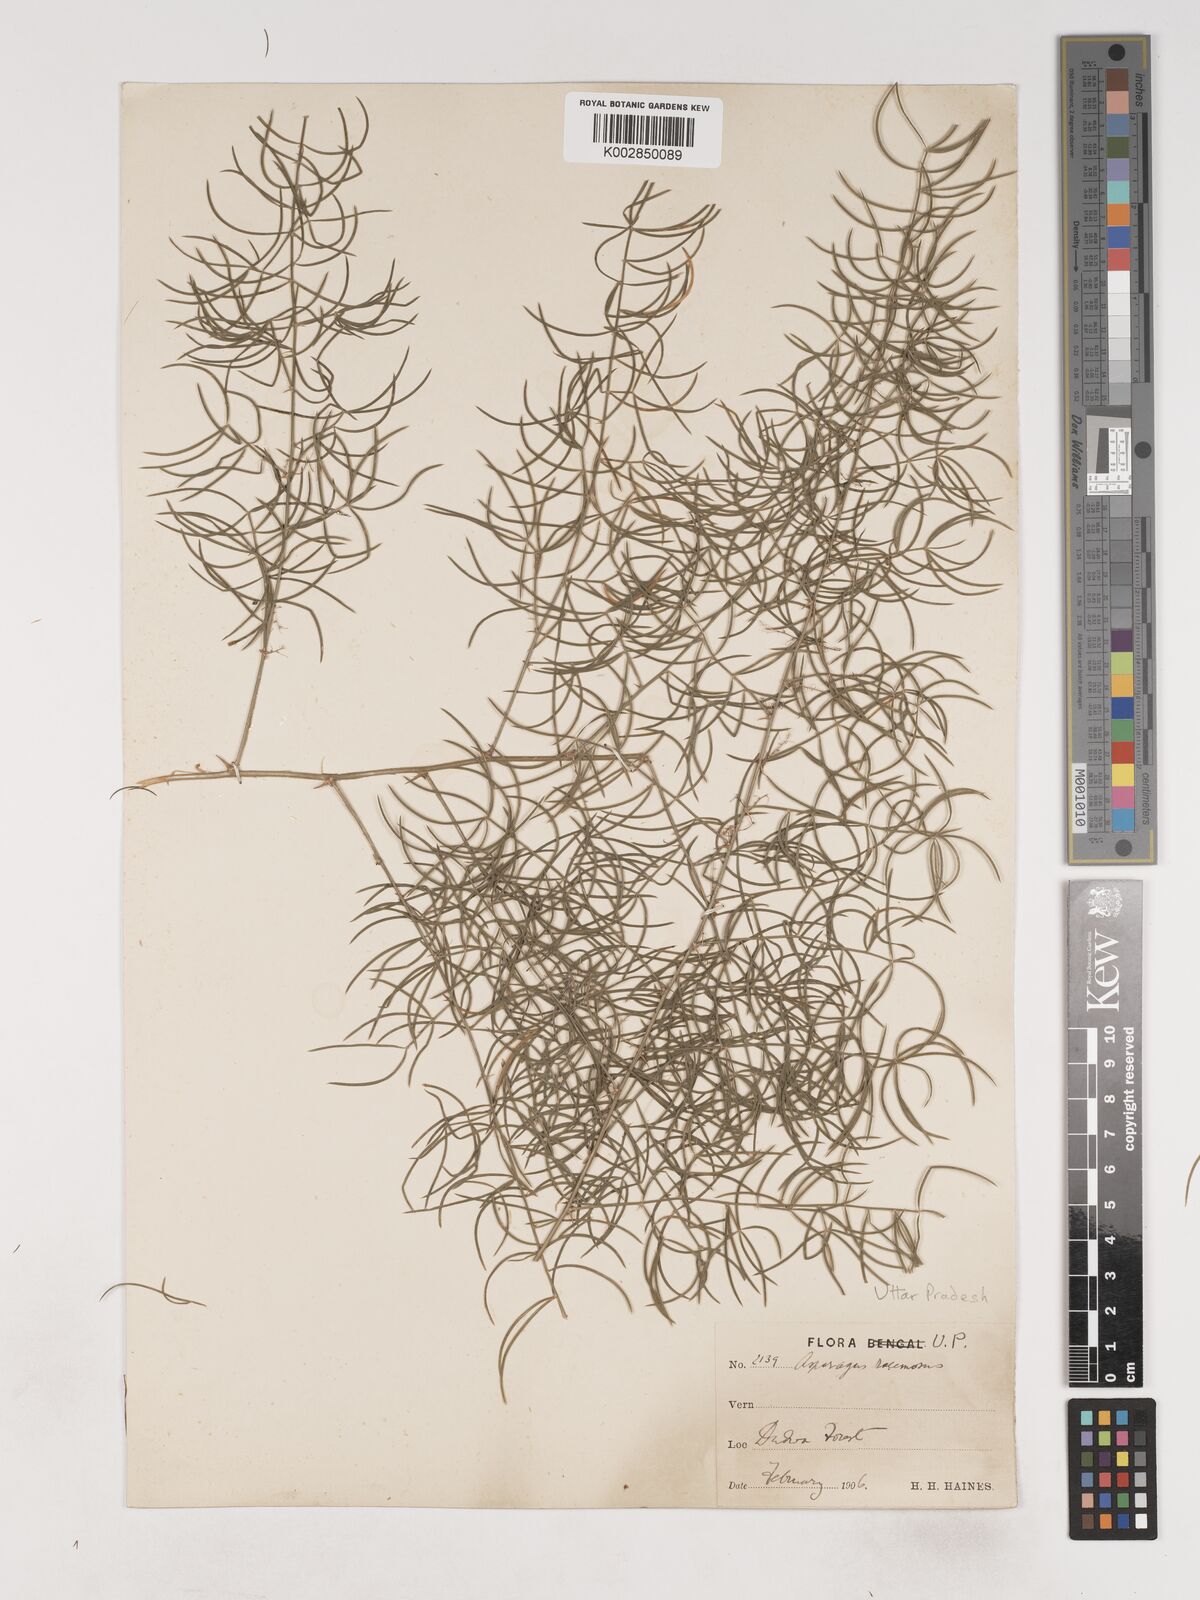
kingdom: Plantae
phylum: Tracheophyta
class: Liliopsida
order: Asparagales
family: Asparagaceae
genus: Asparagus
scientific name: Asparagus racemosus
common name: Asparagus-fern
